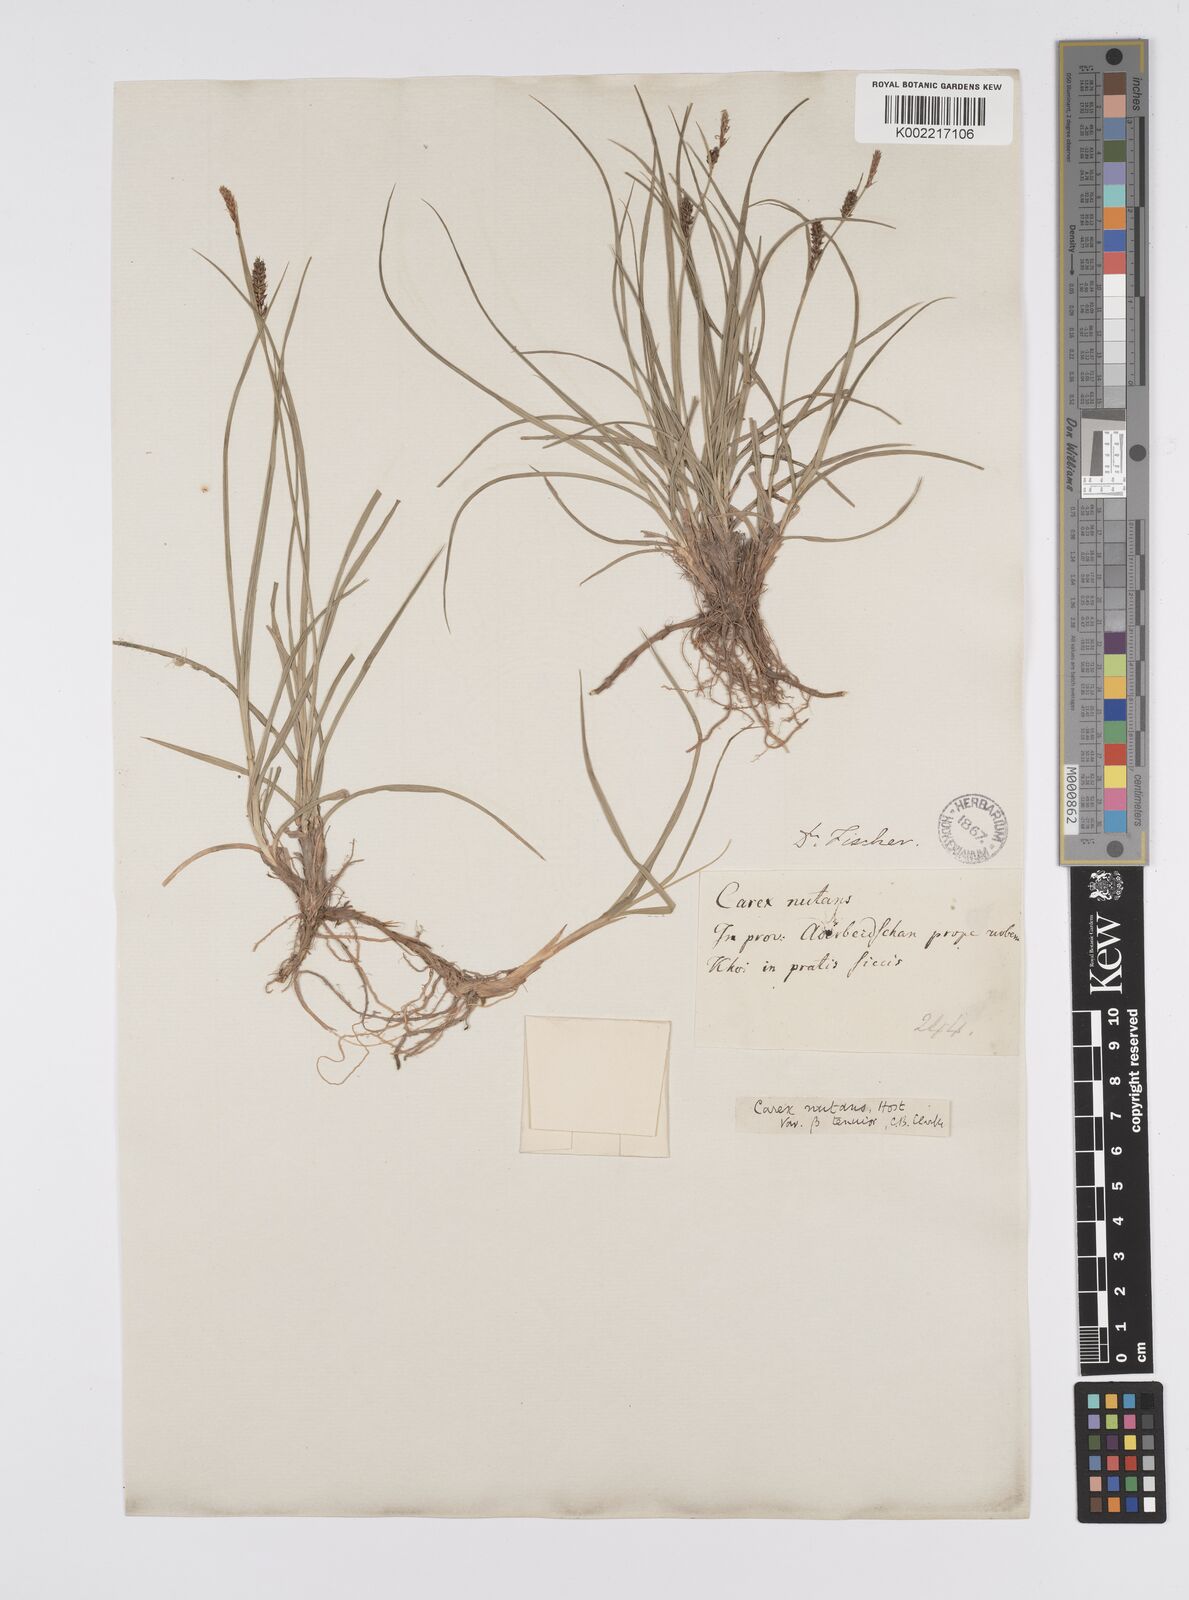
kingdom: Plantae
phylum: Tracheophyta
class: Liliopsida
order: Poales
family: Cyperaceae
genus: Carex
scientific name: Carex melanostachya
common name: Black-spiked sedge
